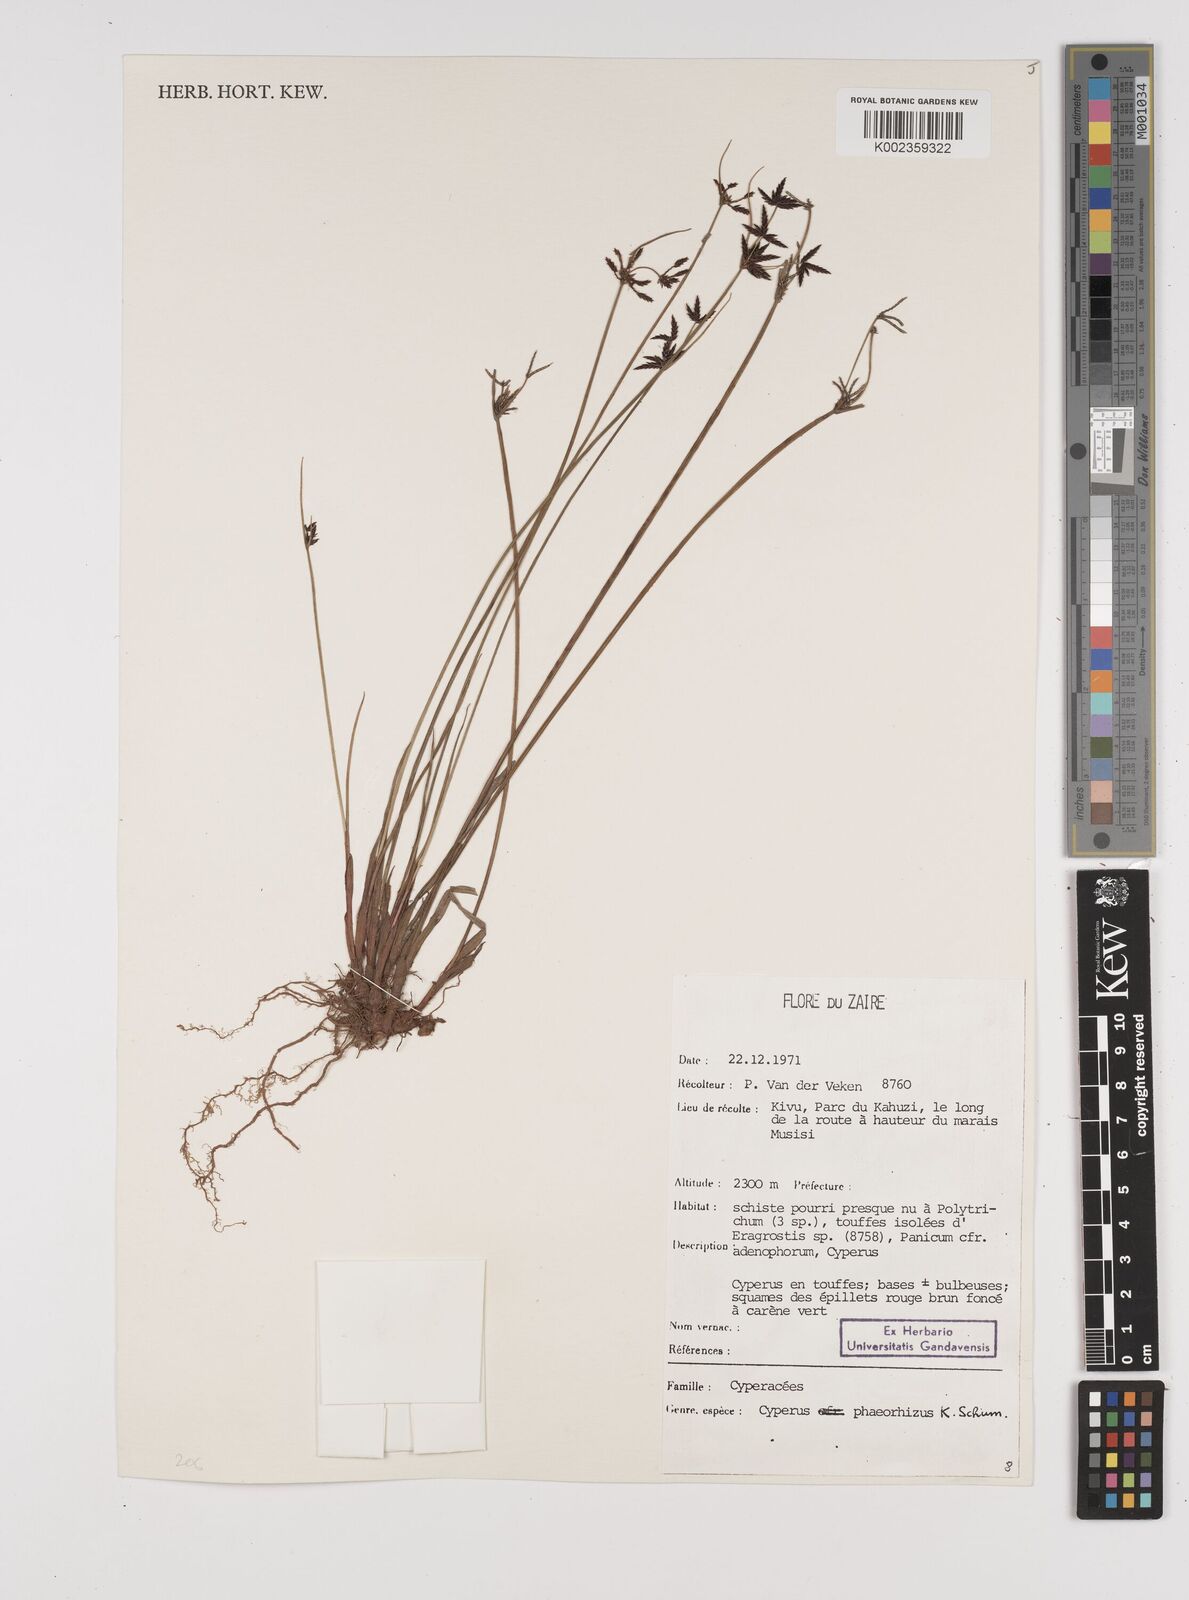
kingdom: Plantae
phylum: Tracheophyta
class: Liliopsida
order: Poales
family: Cyperaceae
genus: Cyperus
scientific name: Cyperus haspan
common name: Haspan flatsedge
